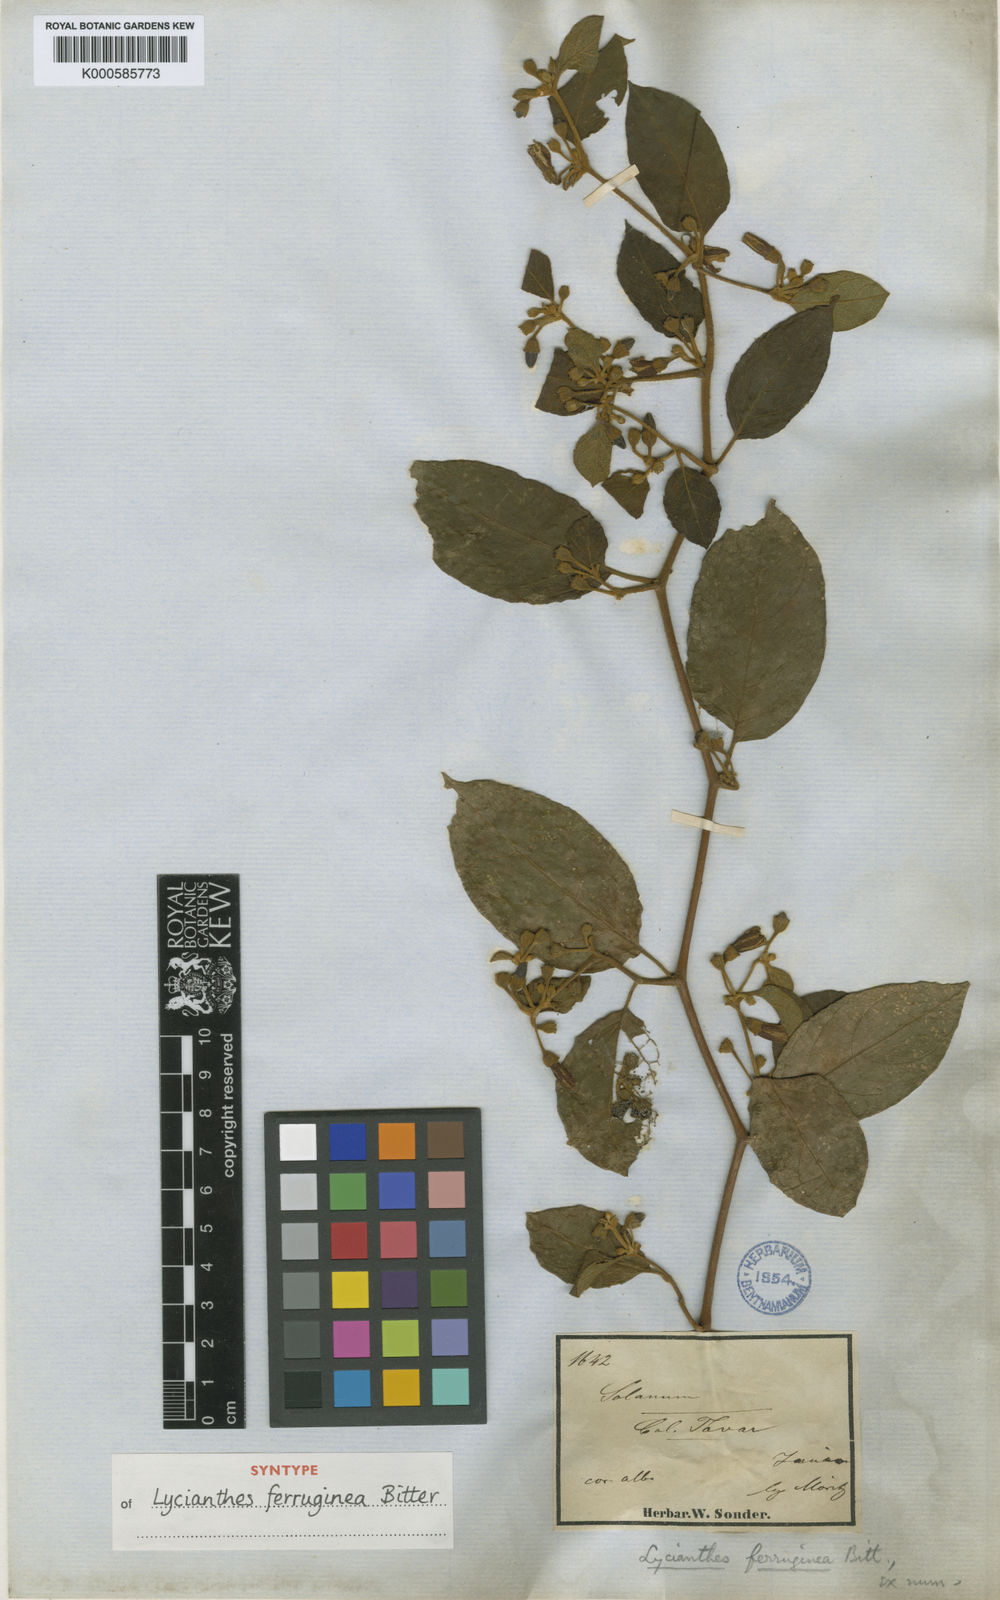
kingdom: Plantae
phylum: Tracheophyta
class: Magnoliopsida
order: Solanales
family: Solanaceae
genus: Lycianthes
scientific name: Lycianthes ferruginea
